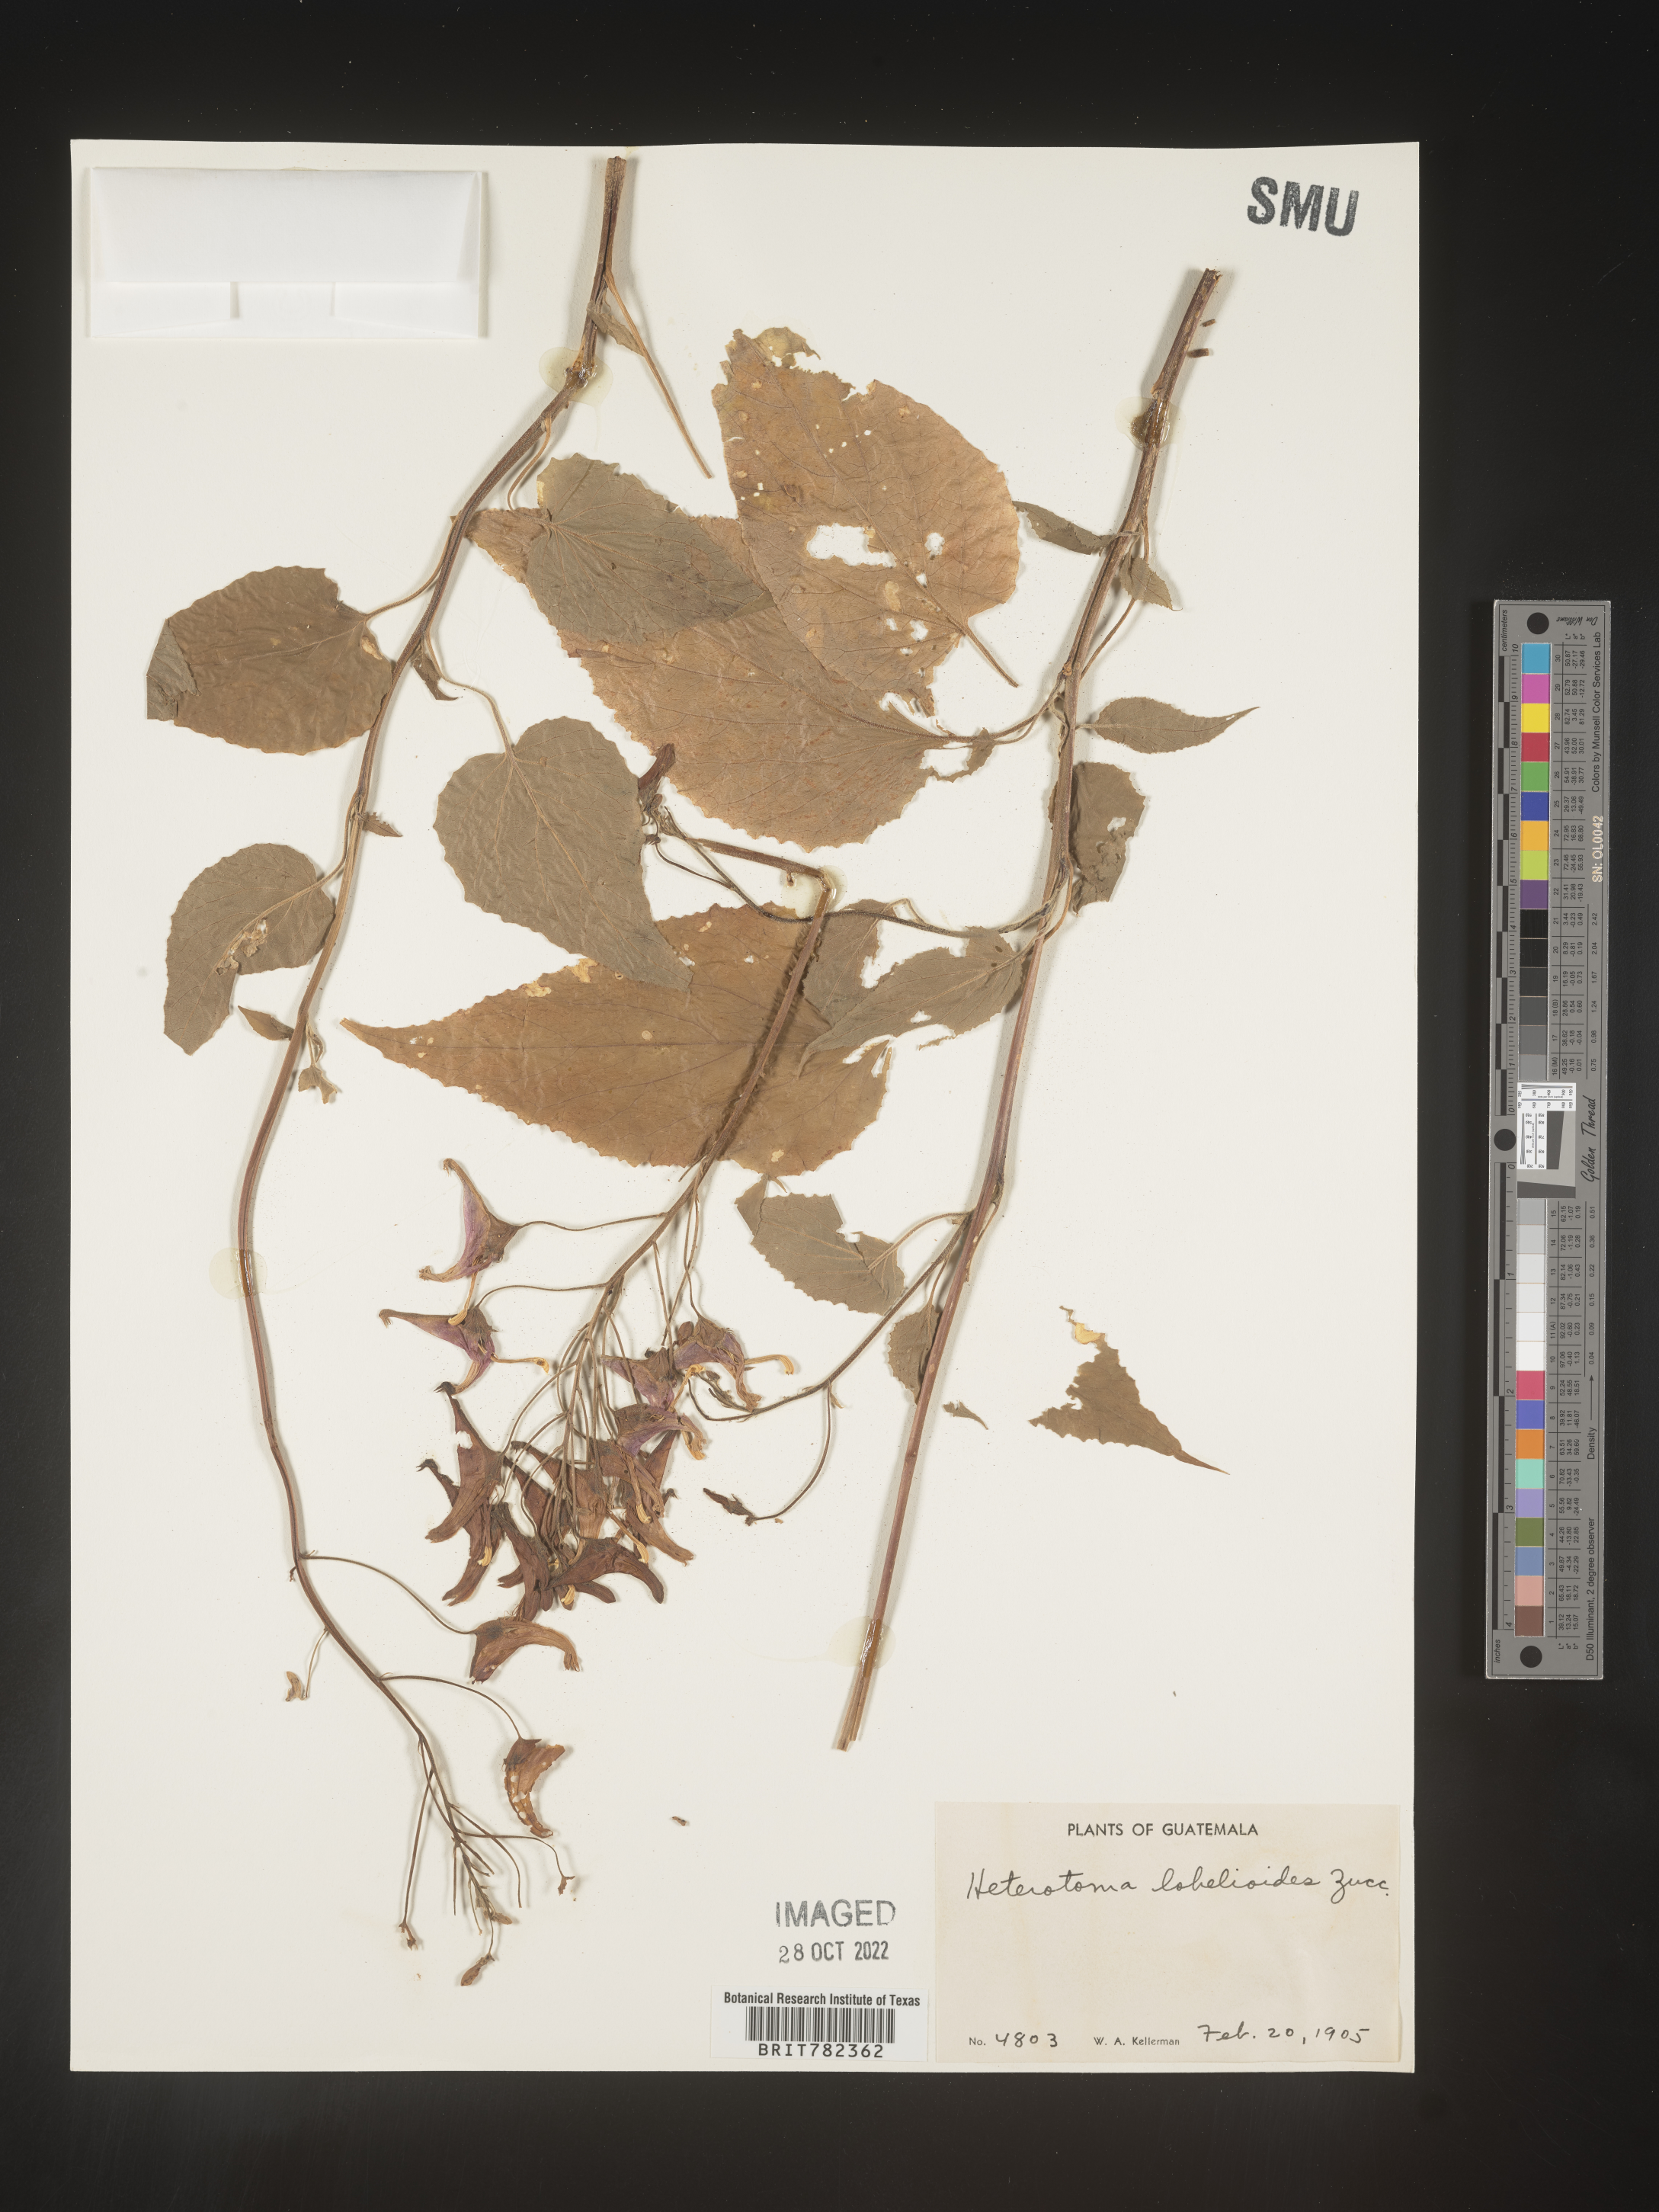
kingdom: Plantae
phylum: Tracheophyta
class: Magnoliopsida
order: Asterales
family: Campanulaceae
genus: Heterotoma
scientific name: Heterotoma
